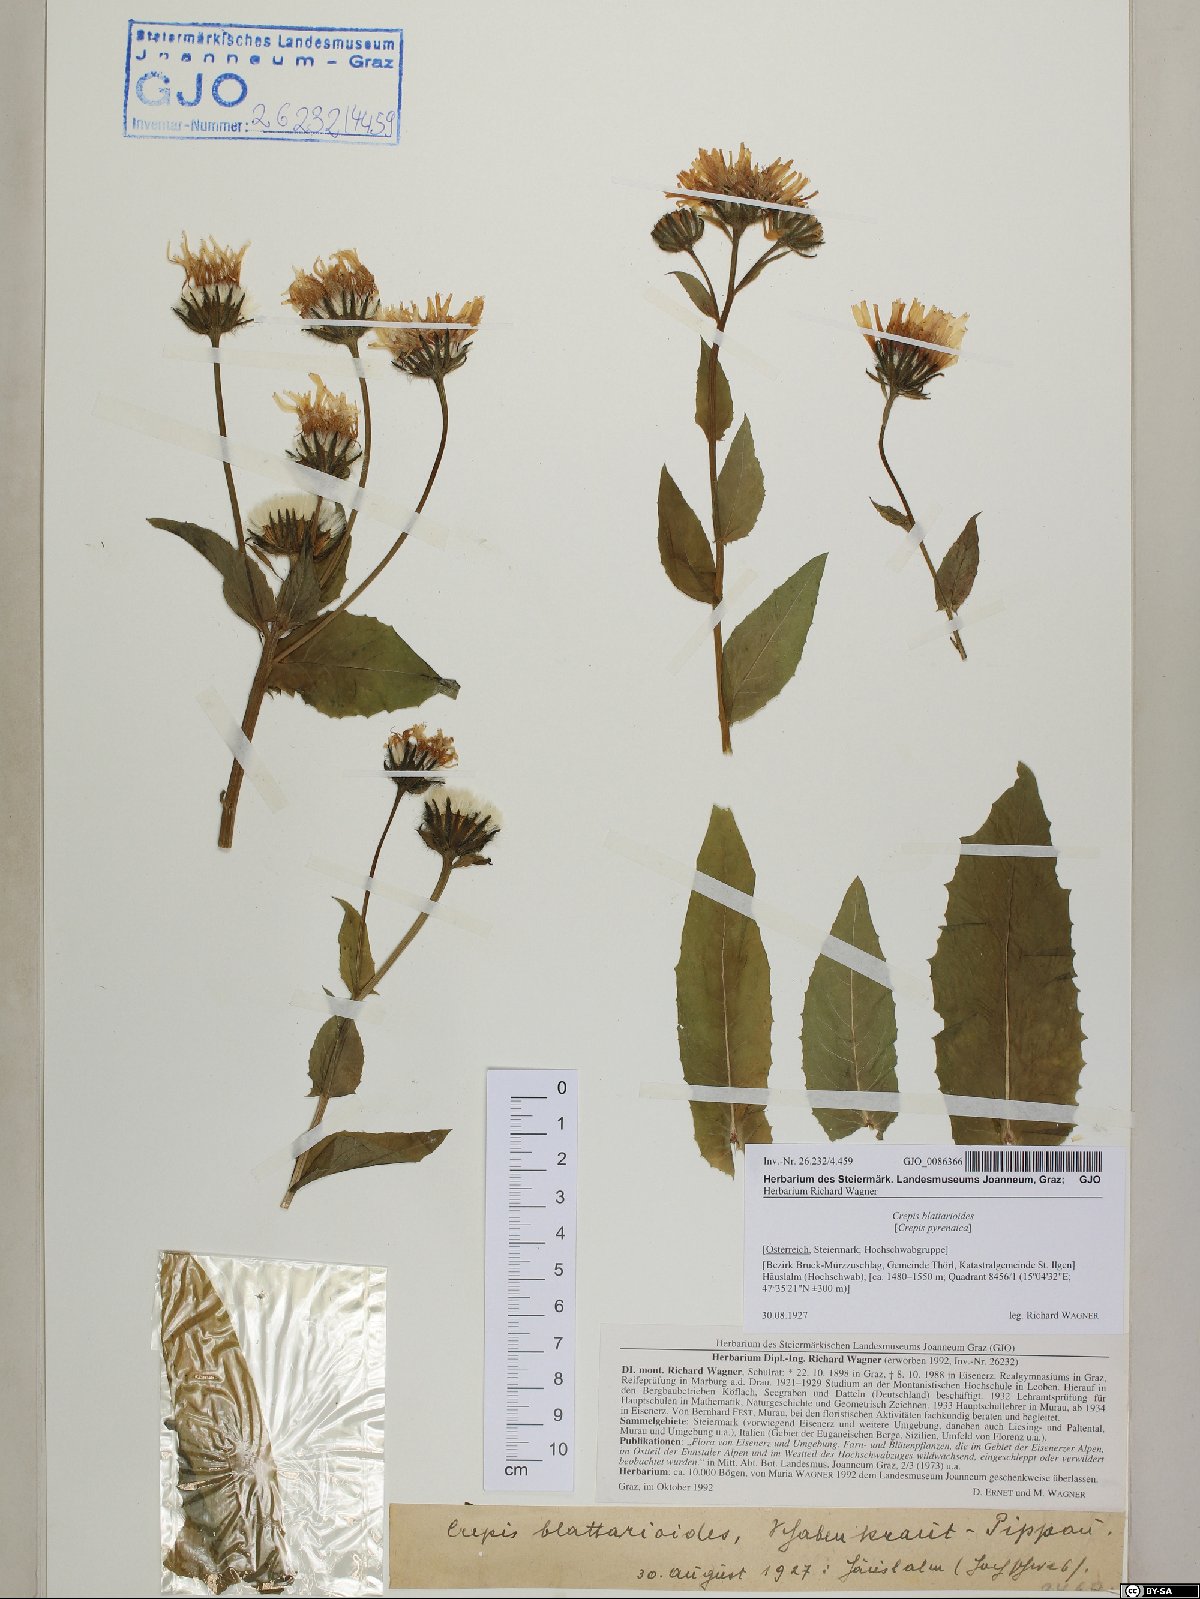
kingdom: Plantae
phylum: Tracheophyta
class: Magnoliopsida
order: Asterales
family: Asteraceae
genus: Crepis
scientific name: Crepis blattarioides
